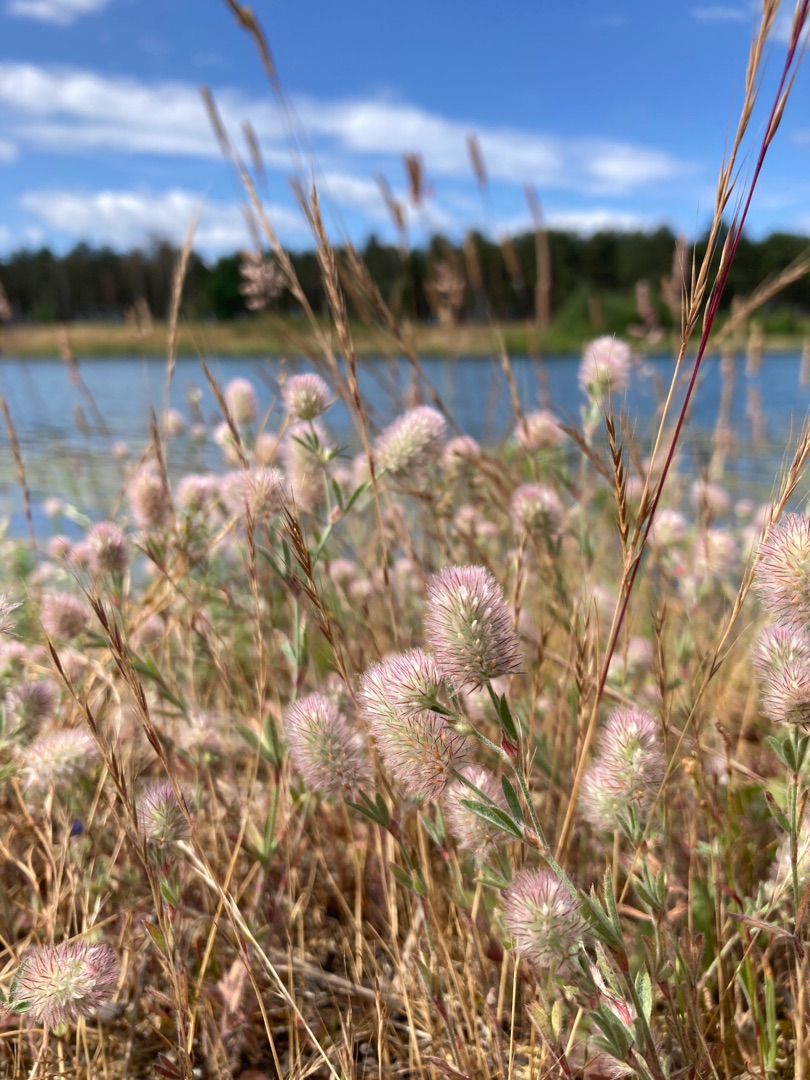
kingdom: Plantae
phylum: Tracheophyta
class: Magnoliopsida
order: Fabales
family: Fabaceae
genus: Trifolium
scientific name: Trifolium arvense
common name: Hare-kløver
